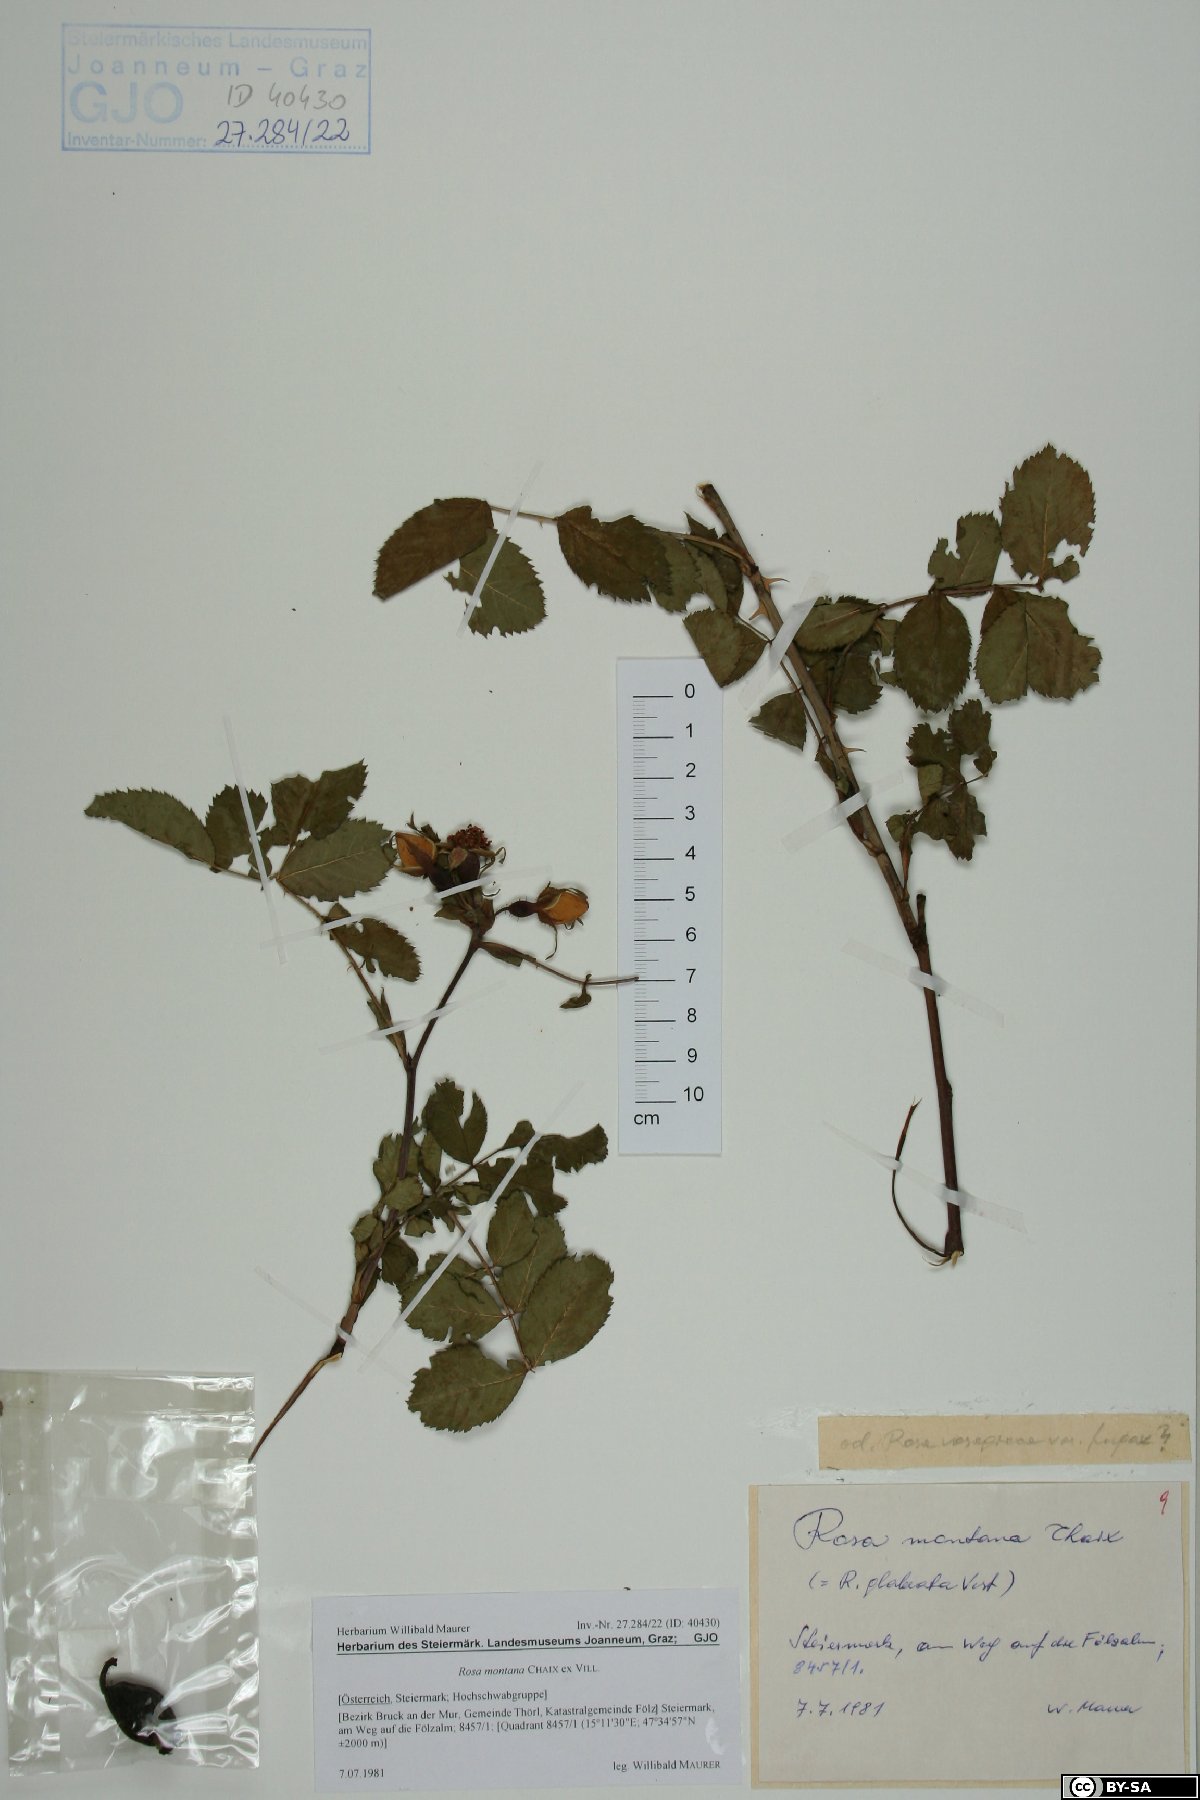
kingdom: Plantae
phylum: Tracheophyta
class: Magnoliopsida
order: Rosales
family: Rosaceae
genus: Rosa
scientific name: Rosa montana
